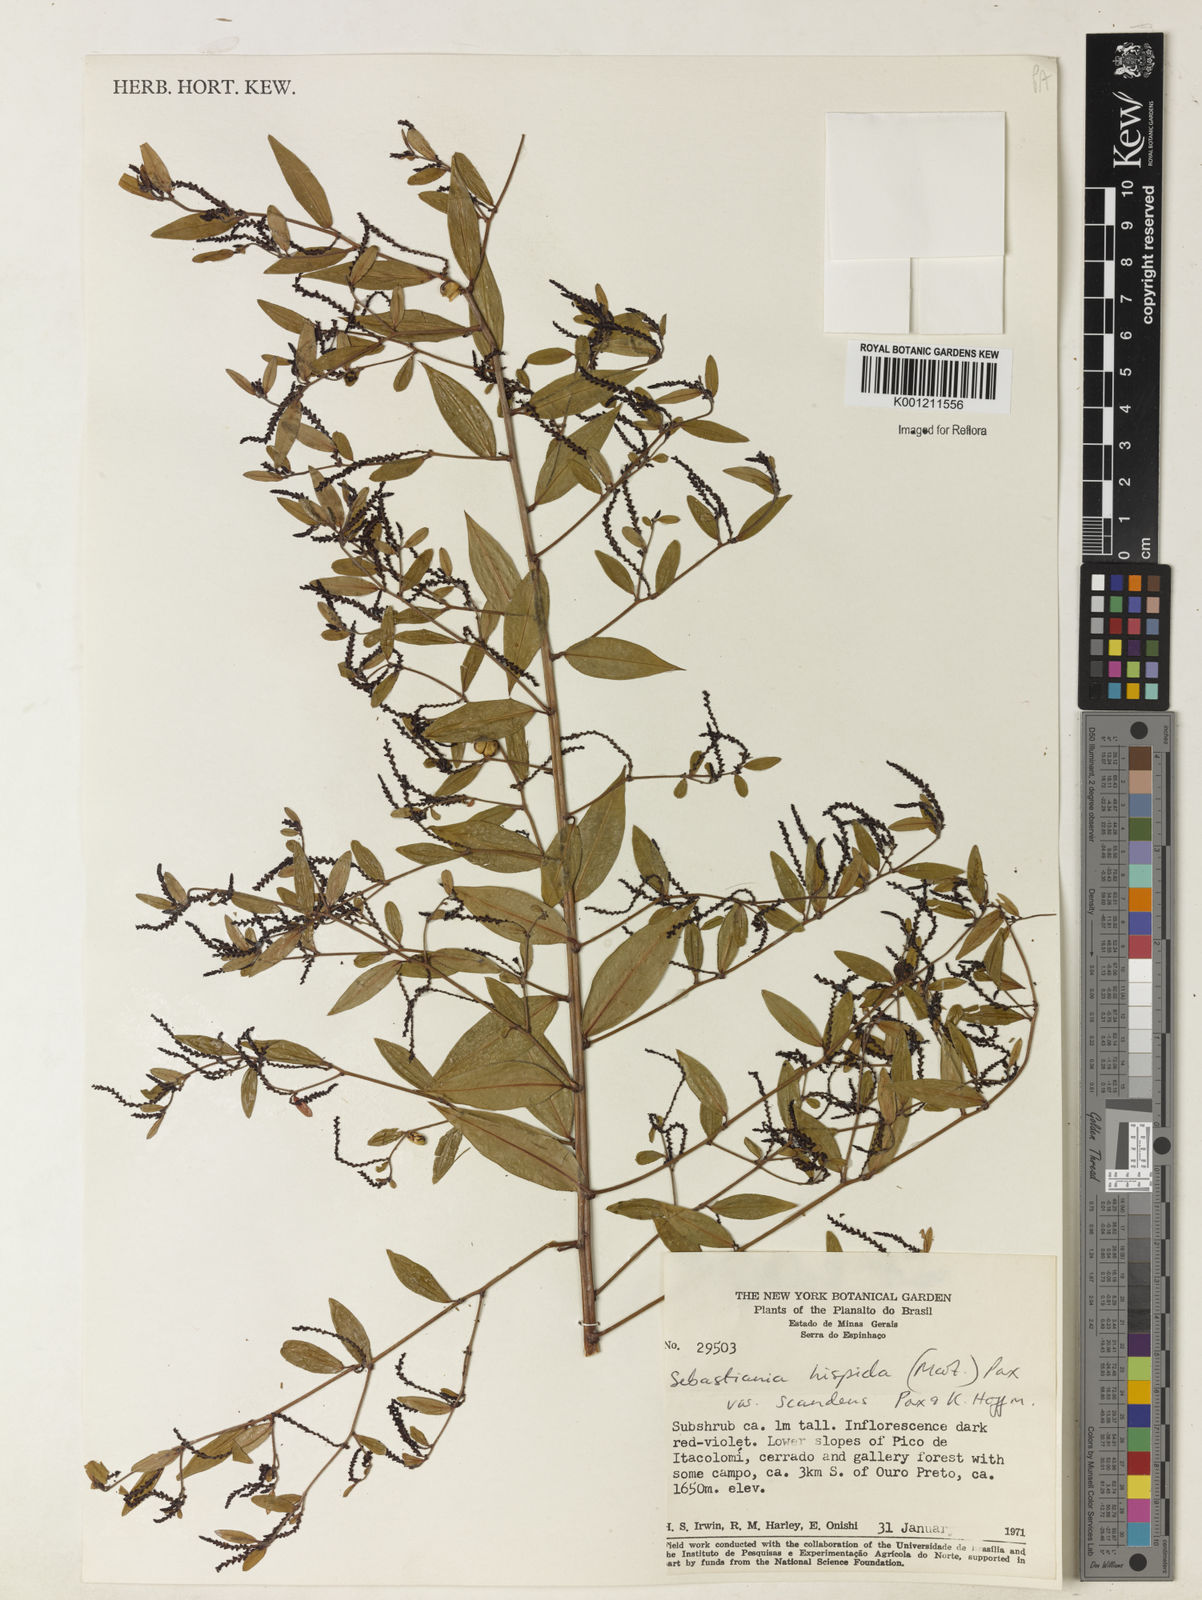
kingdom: Plantae
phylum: Tracheophyta
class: Magnoliopsida
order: Malpighiales
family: Euphorbiaceae
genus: Microstachys
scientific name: Microstachys hispida
